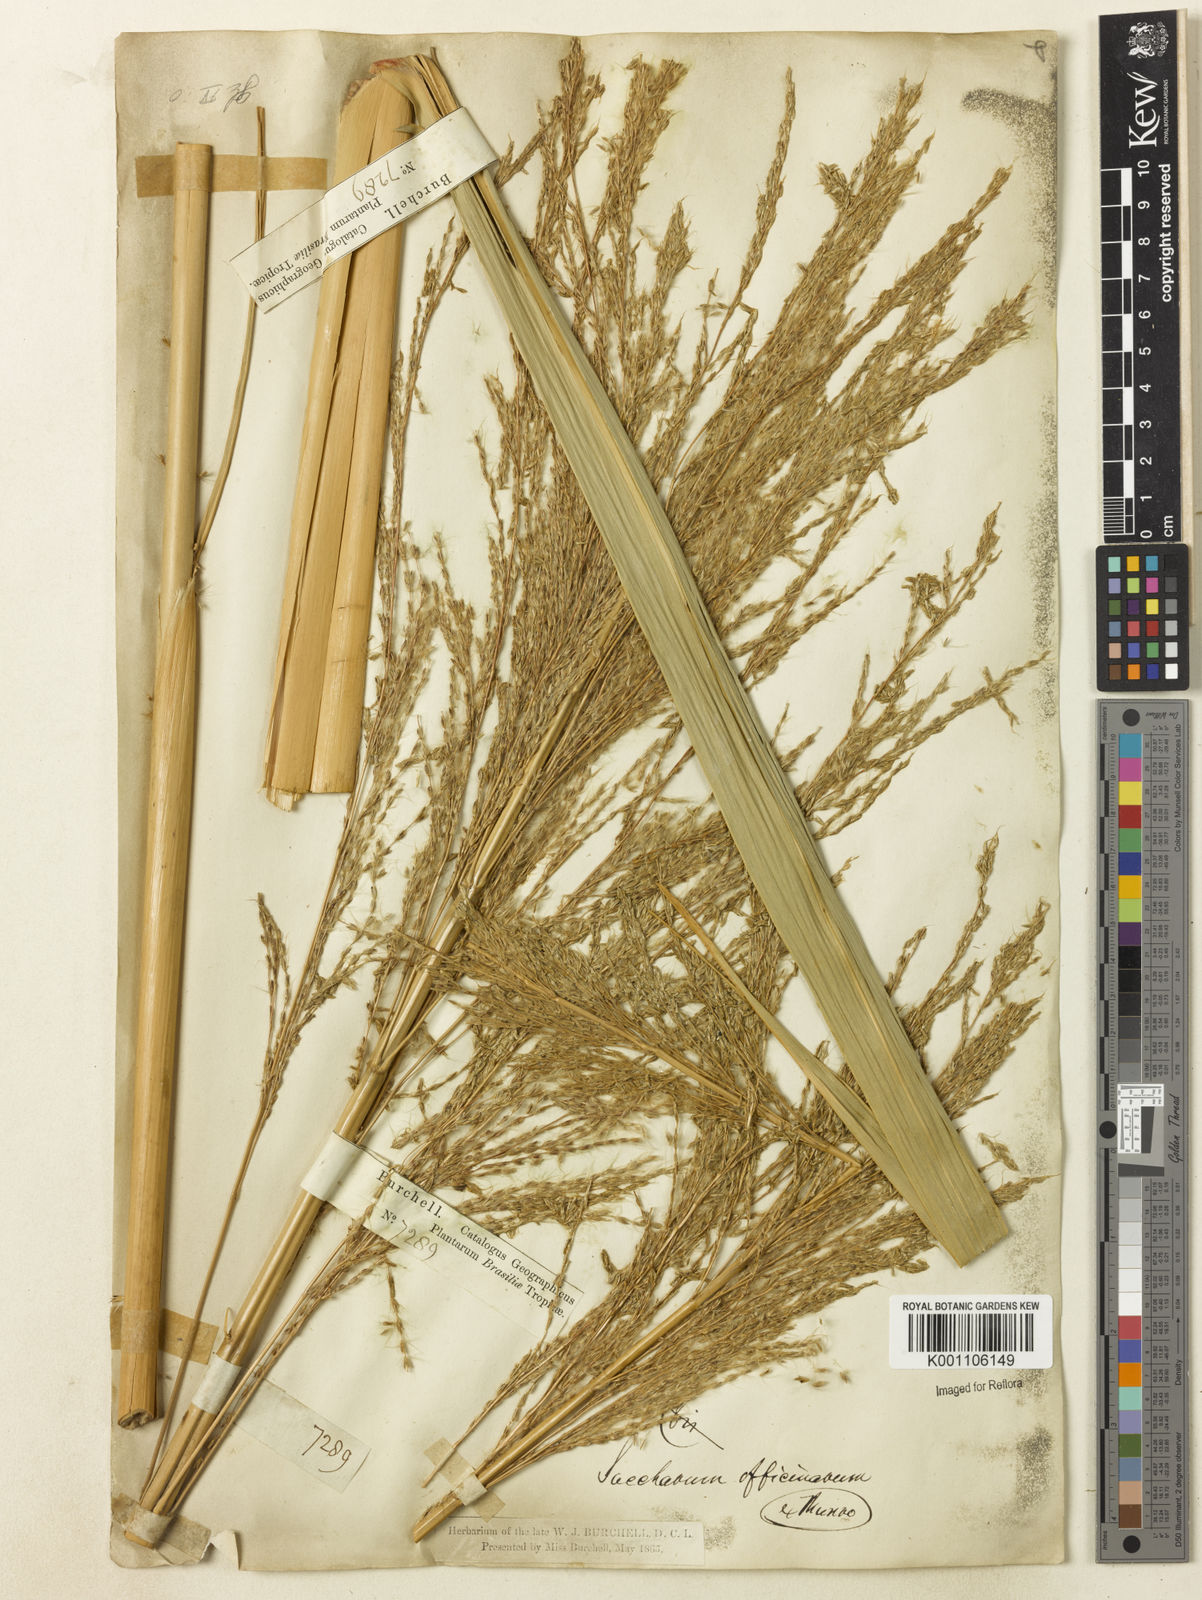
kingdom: Plantae
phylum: Tracheophyta
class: Liliopsida
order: Poales
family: Poaceae
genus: Saccharum
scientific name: Saccharum officinarum
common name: Sugarcane
